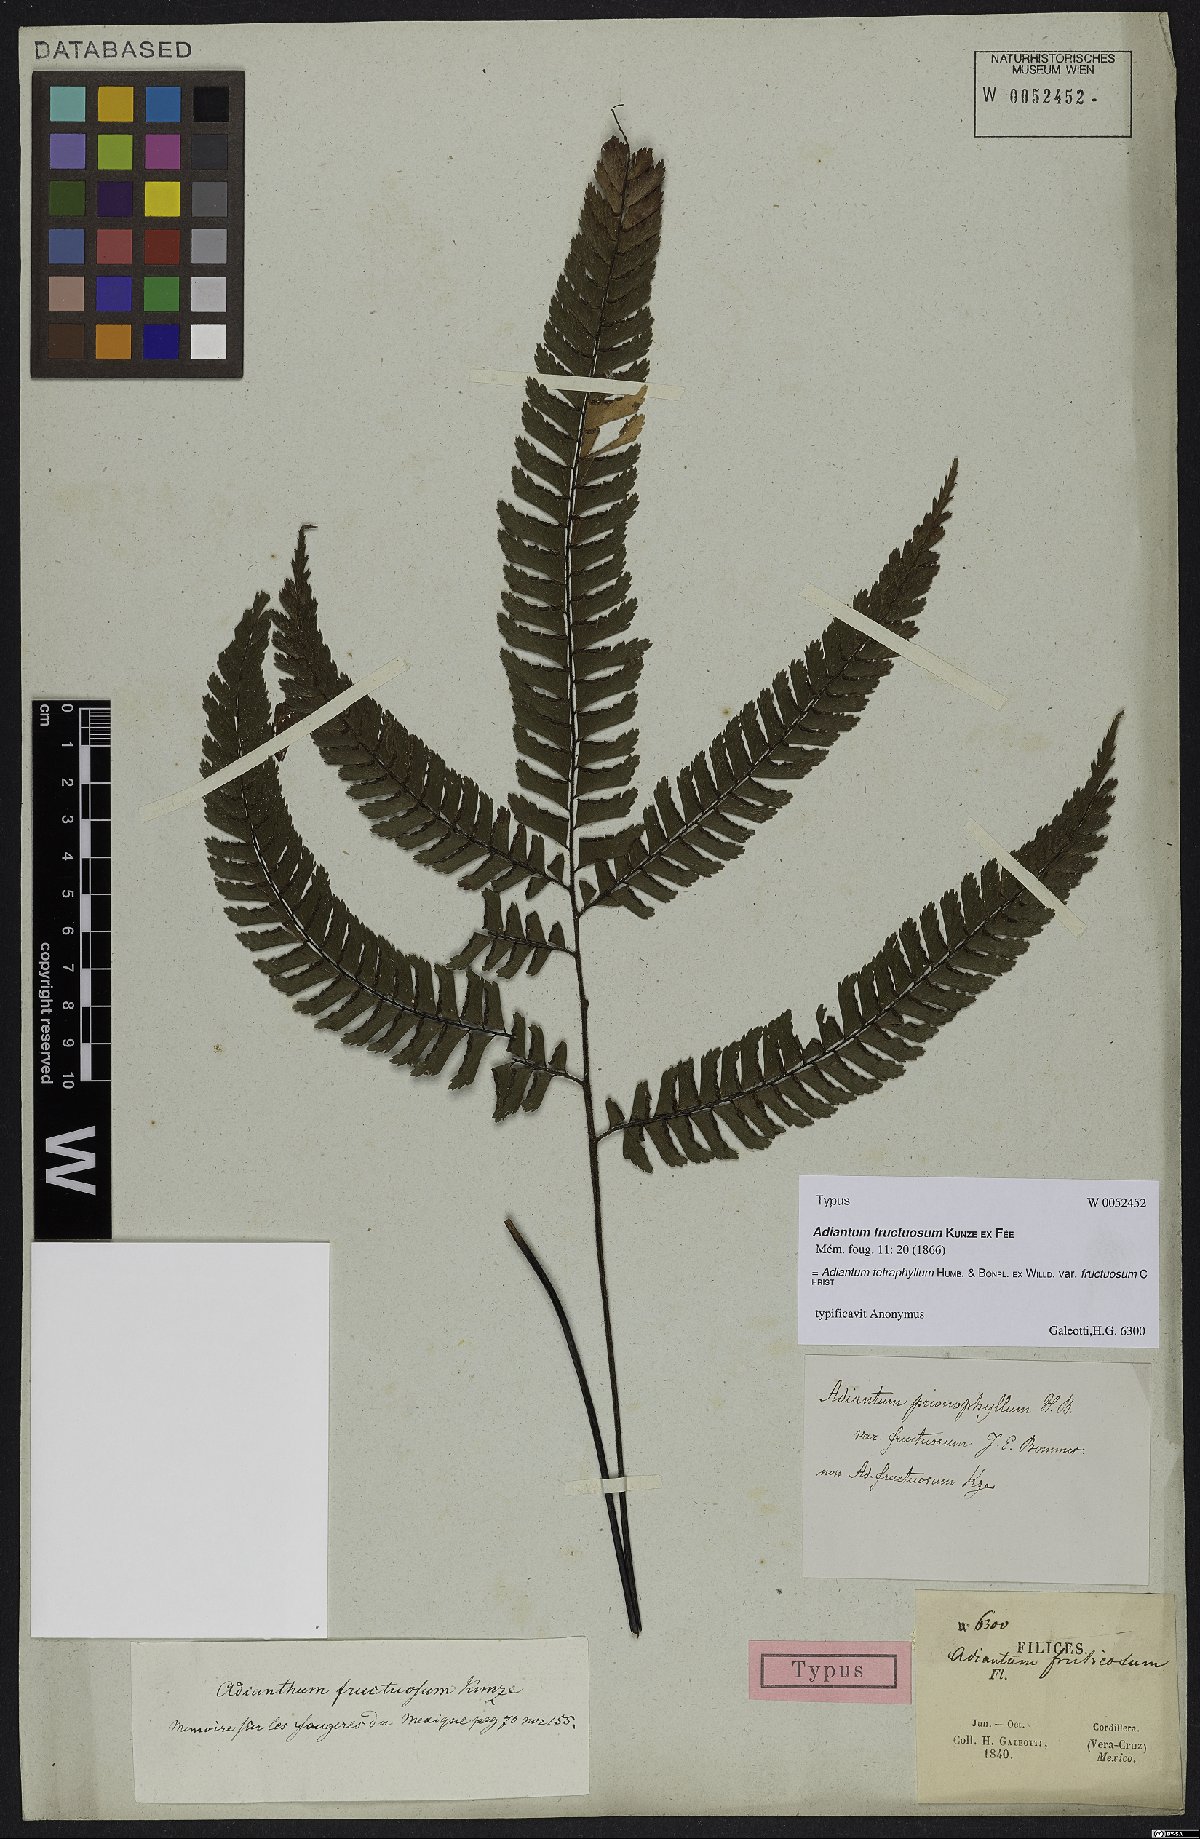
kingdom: Plantae
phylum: Tracheophyta
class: Polypodiopsida
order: Polypodiales
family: Pteridaceae
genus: Adiantum
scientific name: Adiantum fructuosum
